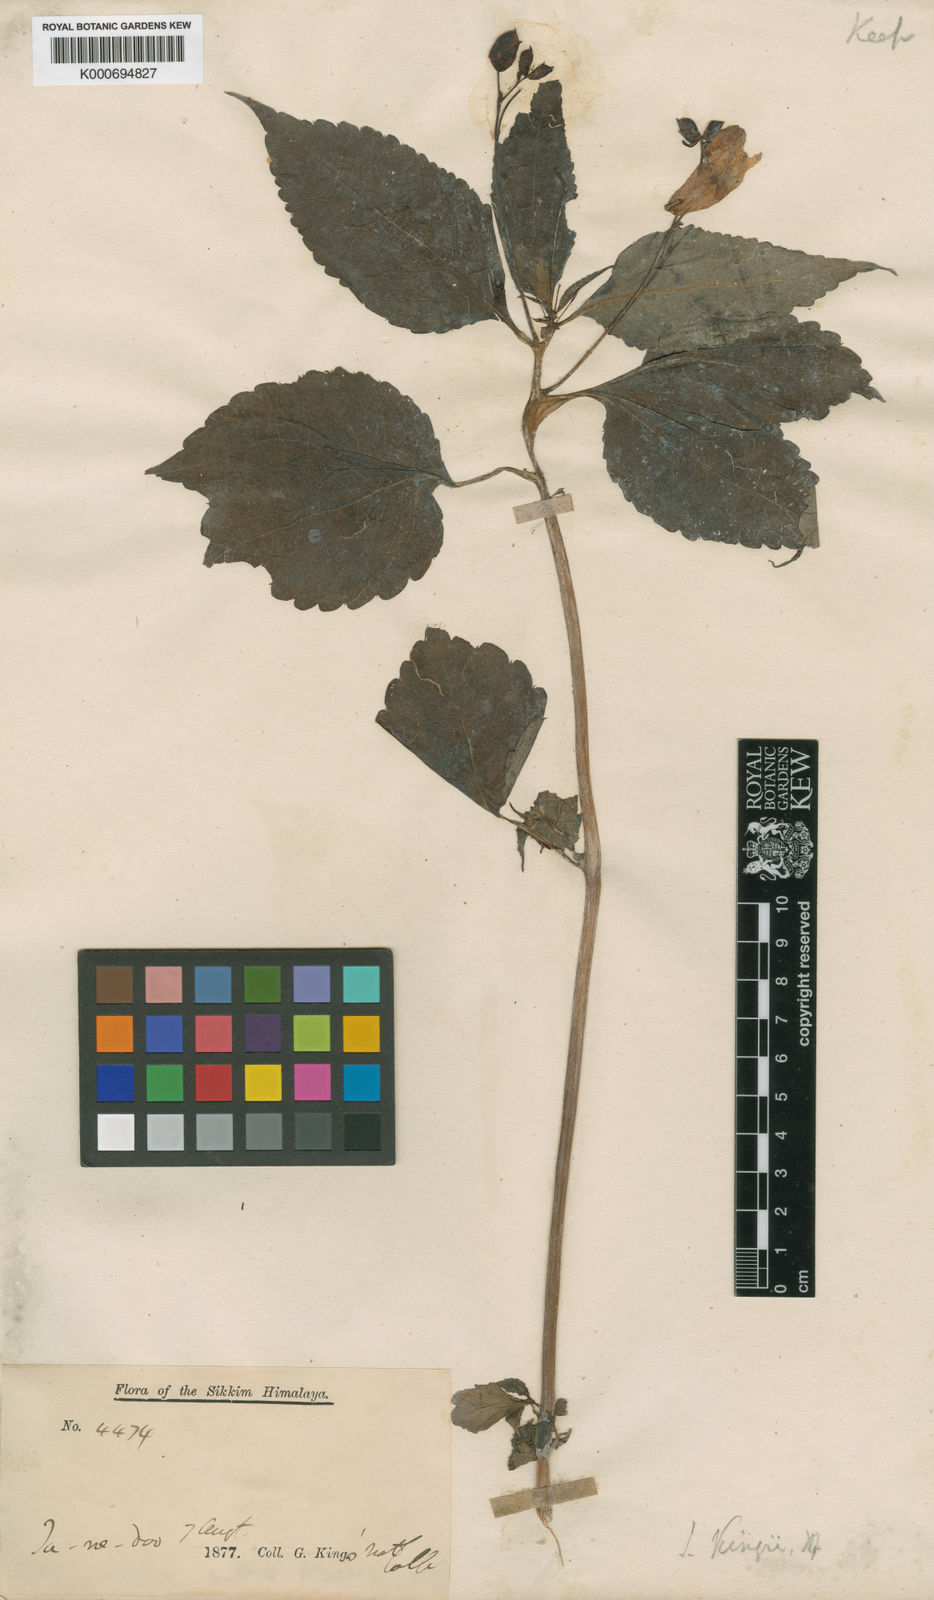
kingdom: Plantae
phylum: Tracheophyta
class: Magnoliopsida
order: Ericales
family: Balsaminaceae
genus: Impatiens
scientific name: Impatiens kingii
